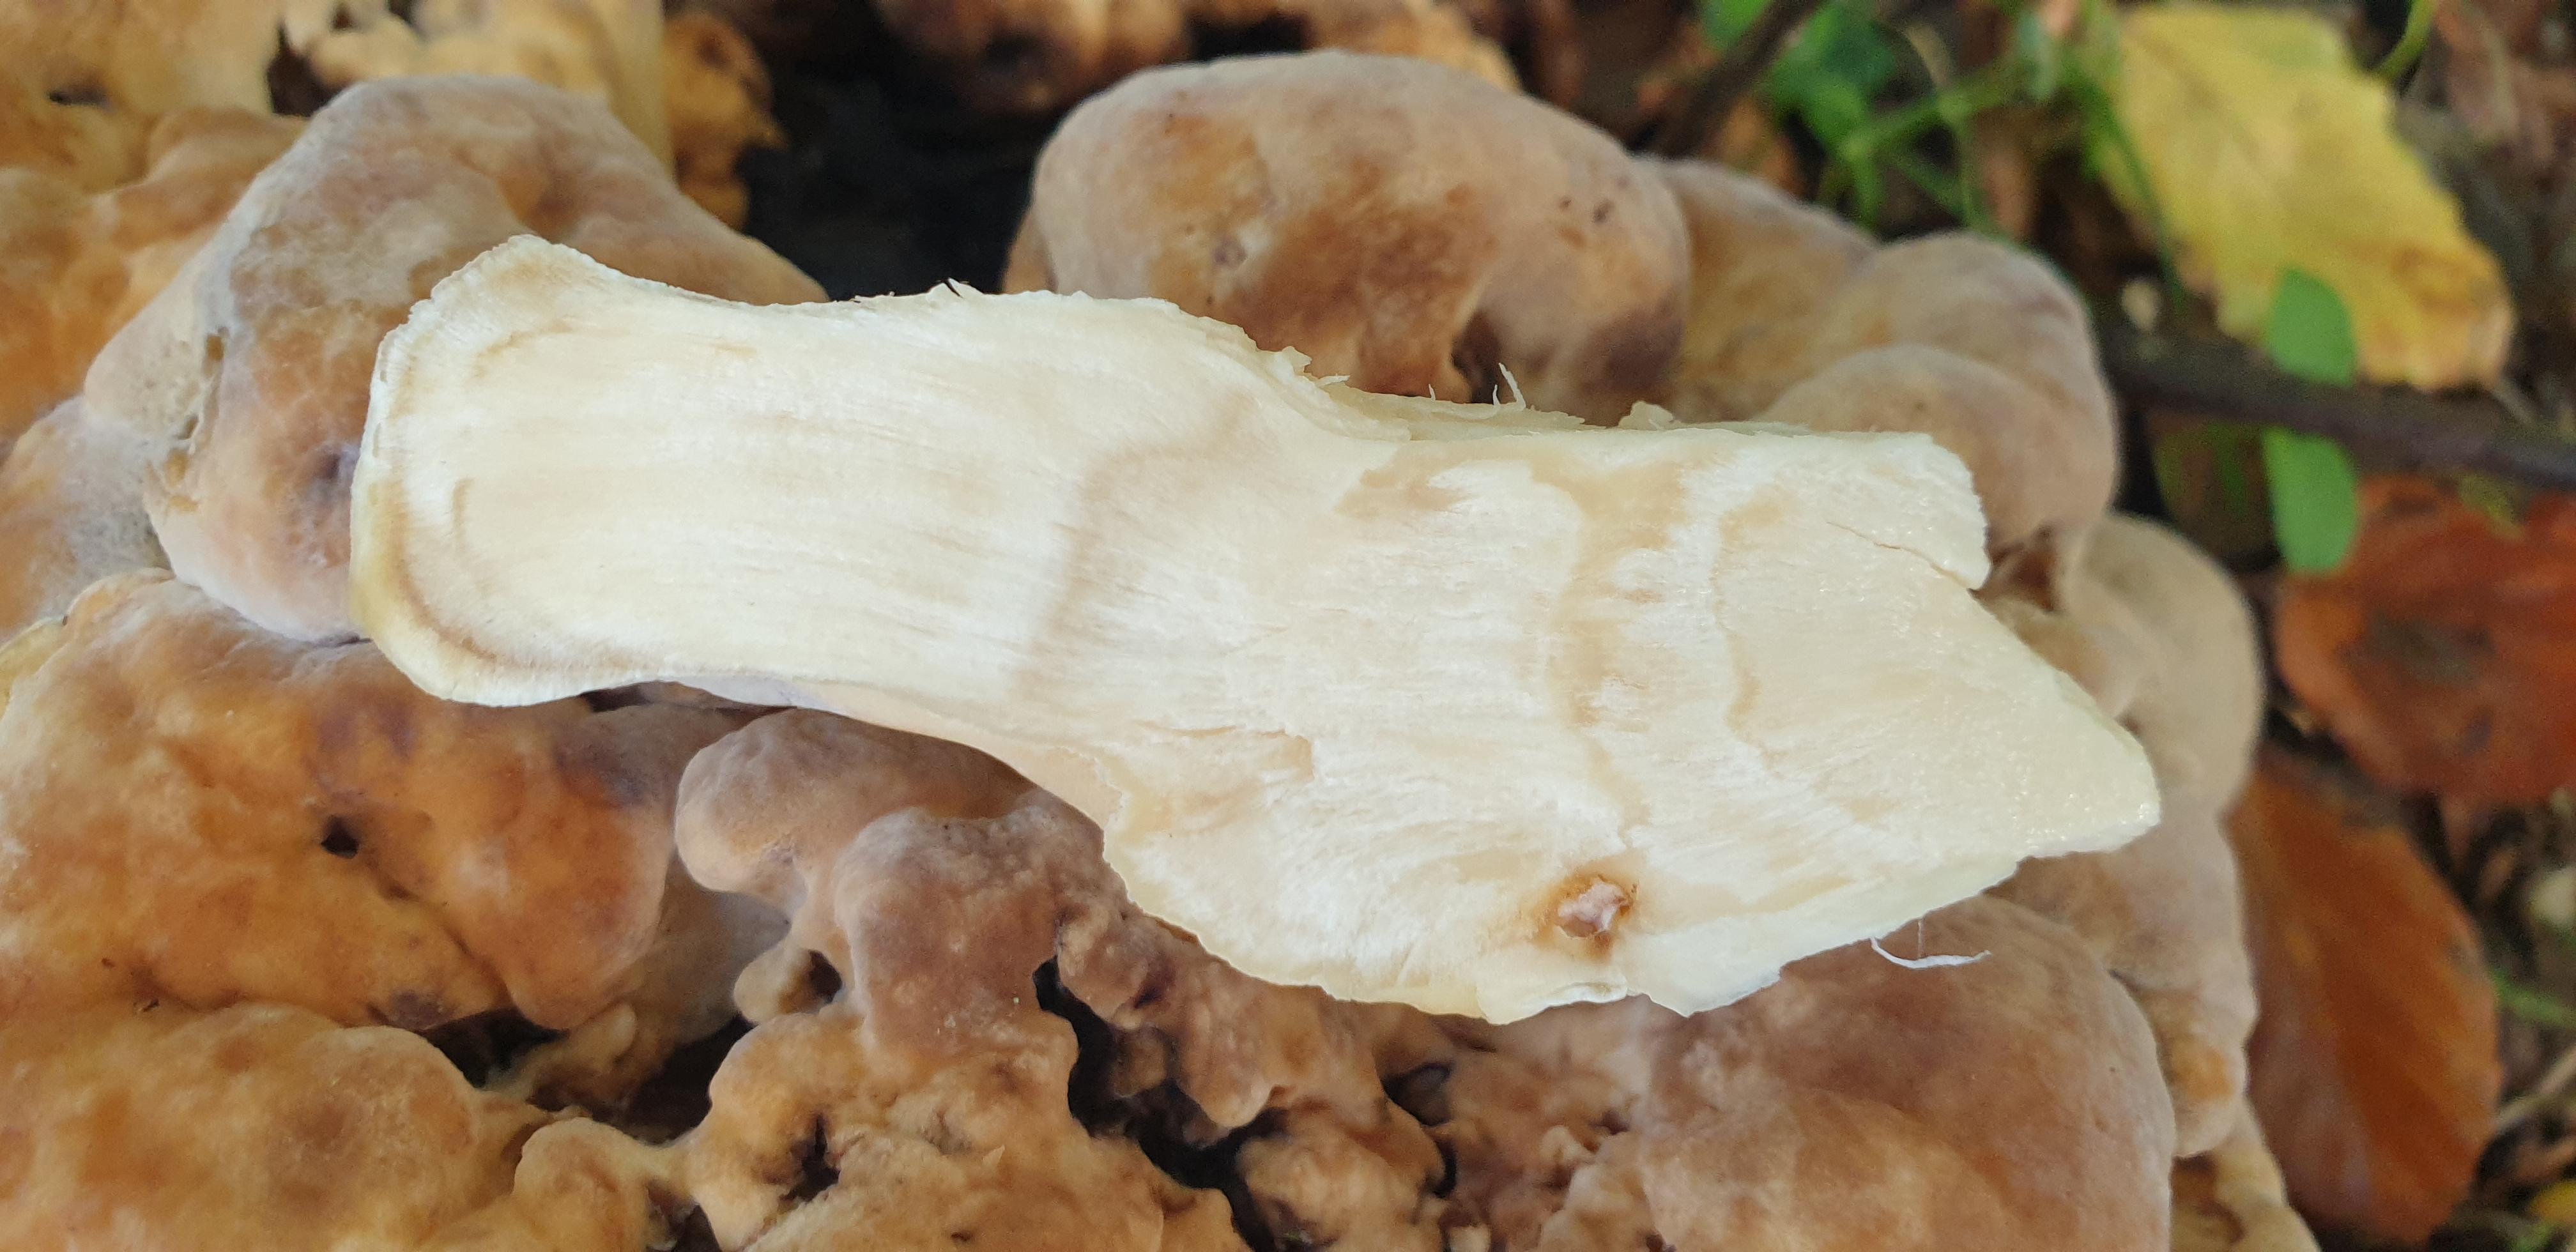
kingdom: Fungi
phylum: Basidiomycota
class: Agaricomycetes
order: Polyporales
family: Meripilaceae
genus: Meripilus
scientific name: Meripilus giganteus
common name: kæmpeporesvamp
